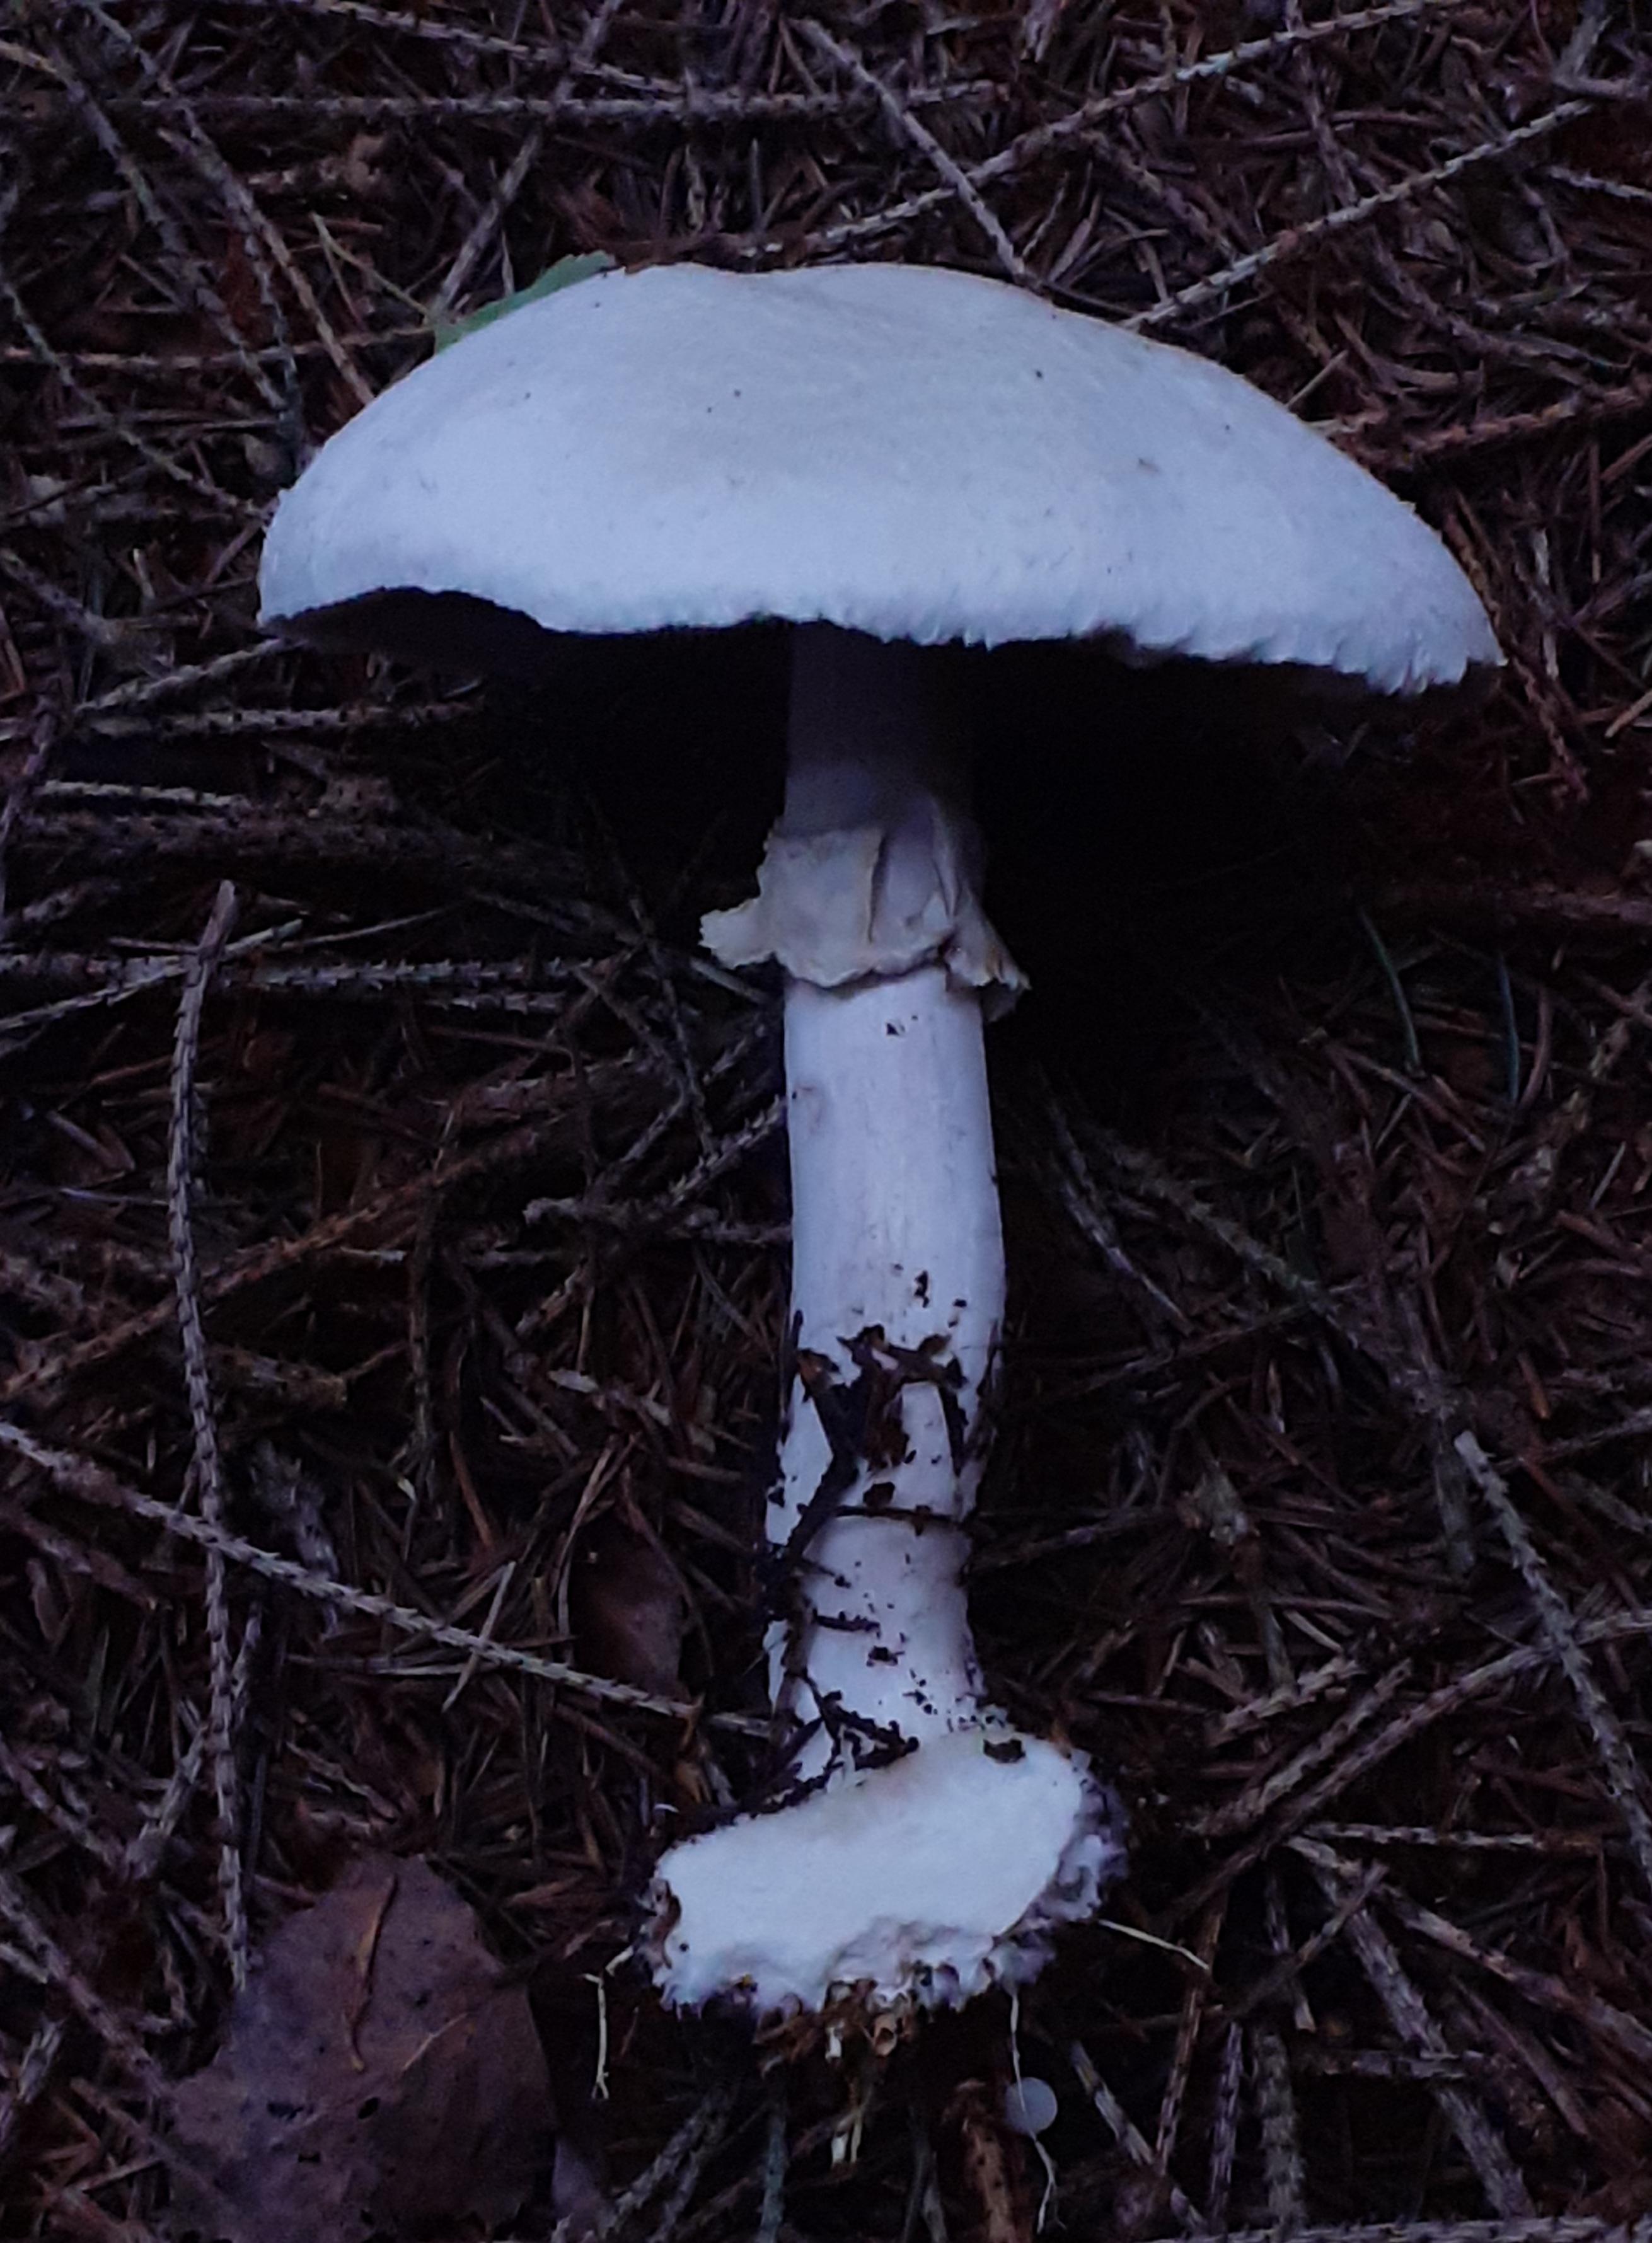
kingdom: Fungi
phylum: Basidiomycota
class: Agaricomycetes
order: Agaricales
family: Agaricaceae
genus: Agaricus
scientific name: Agaricus sylvicola
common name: skiveknoldet champignon
